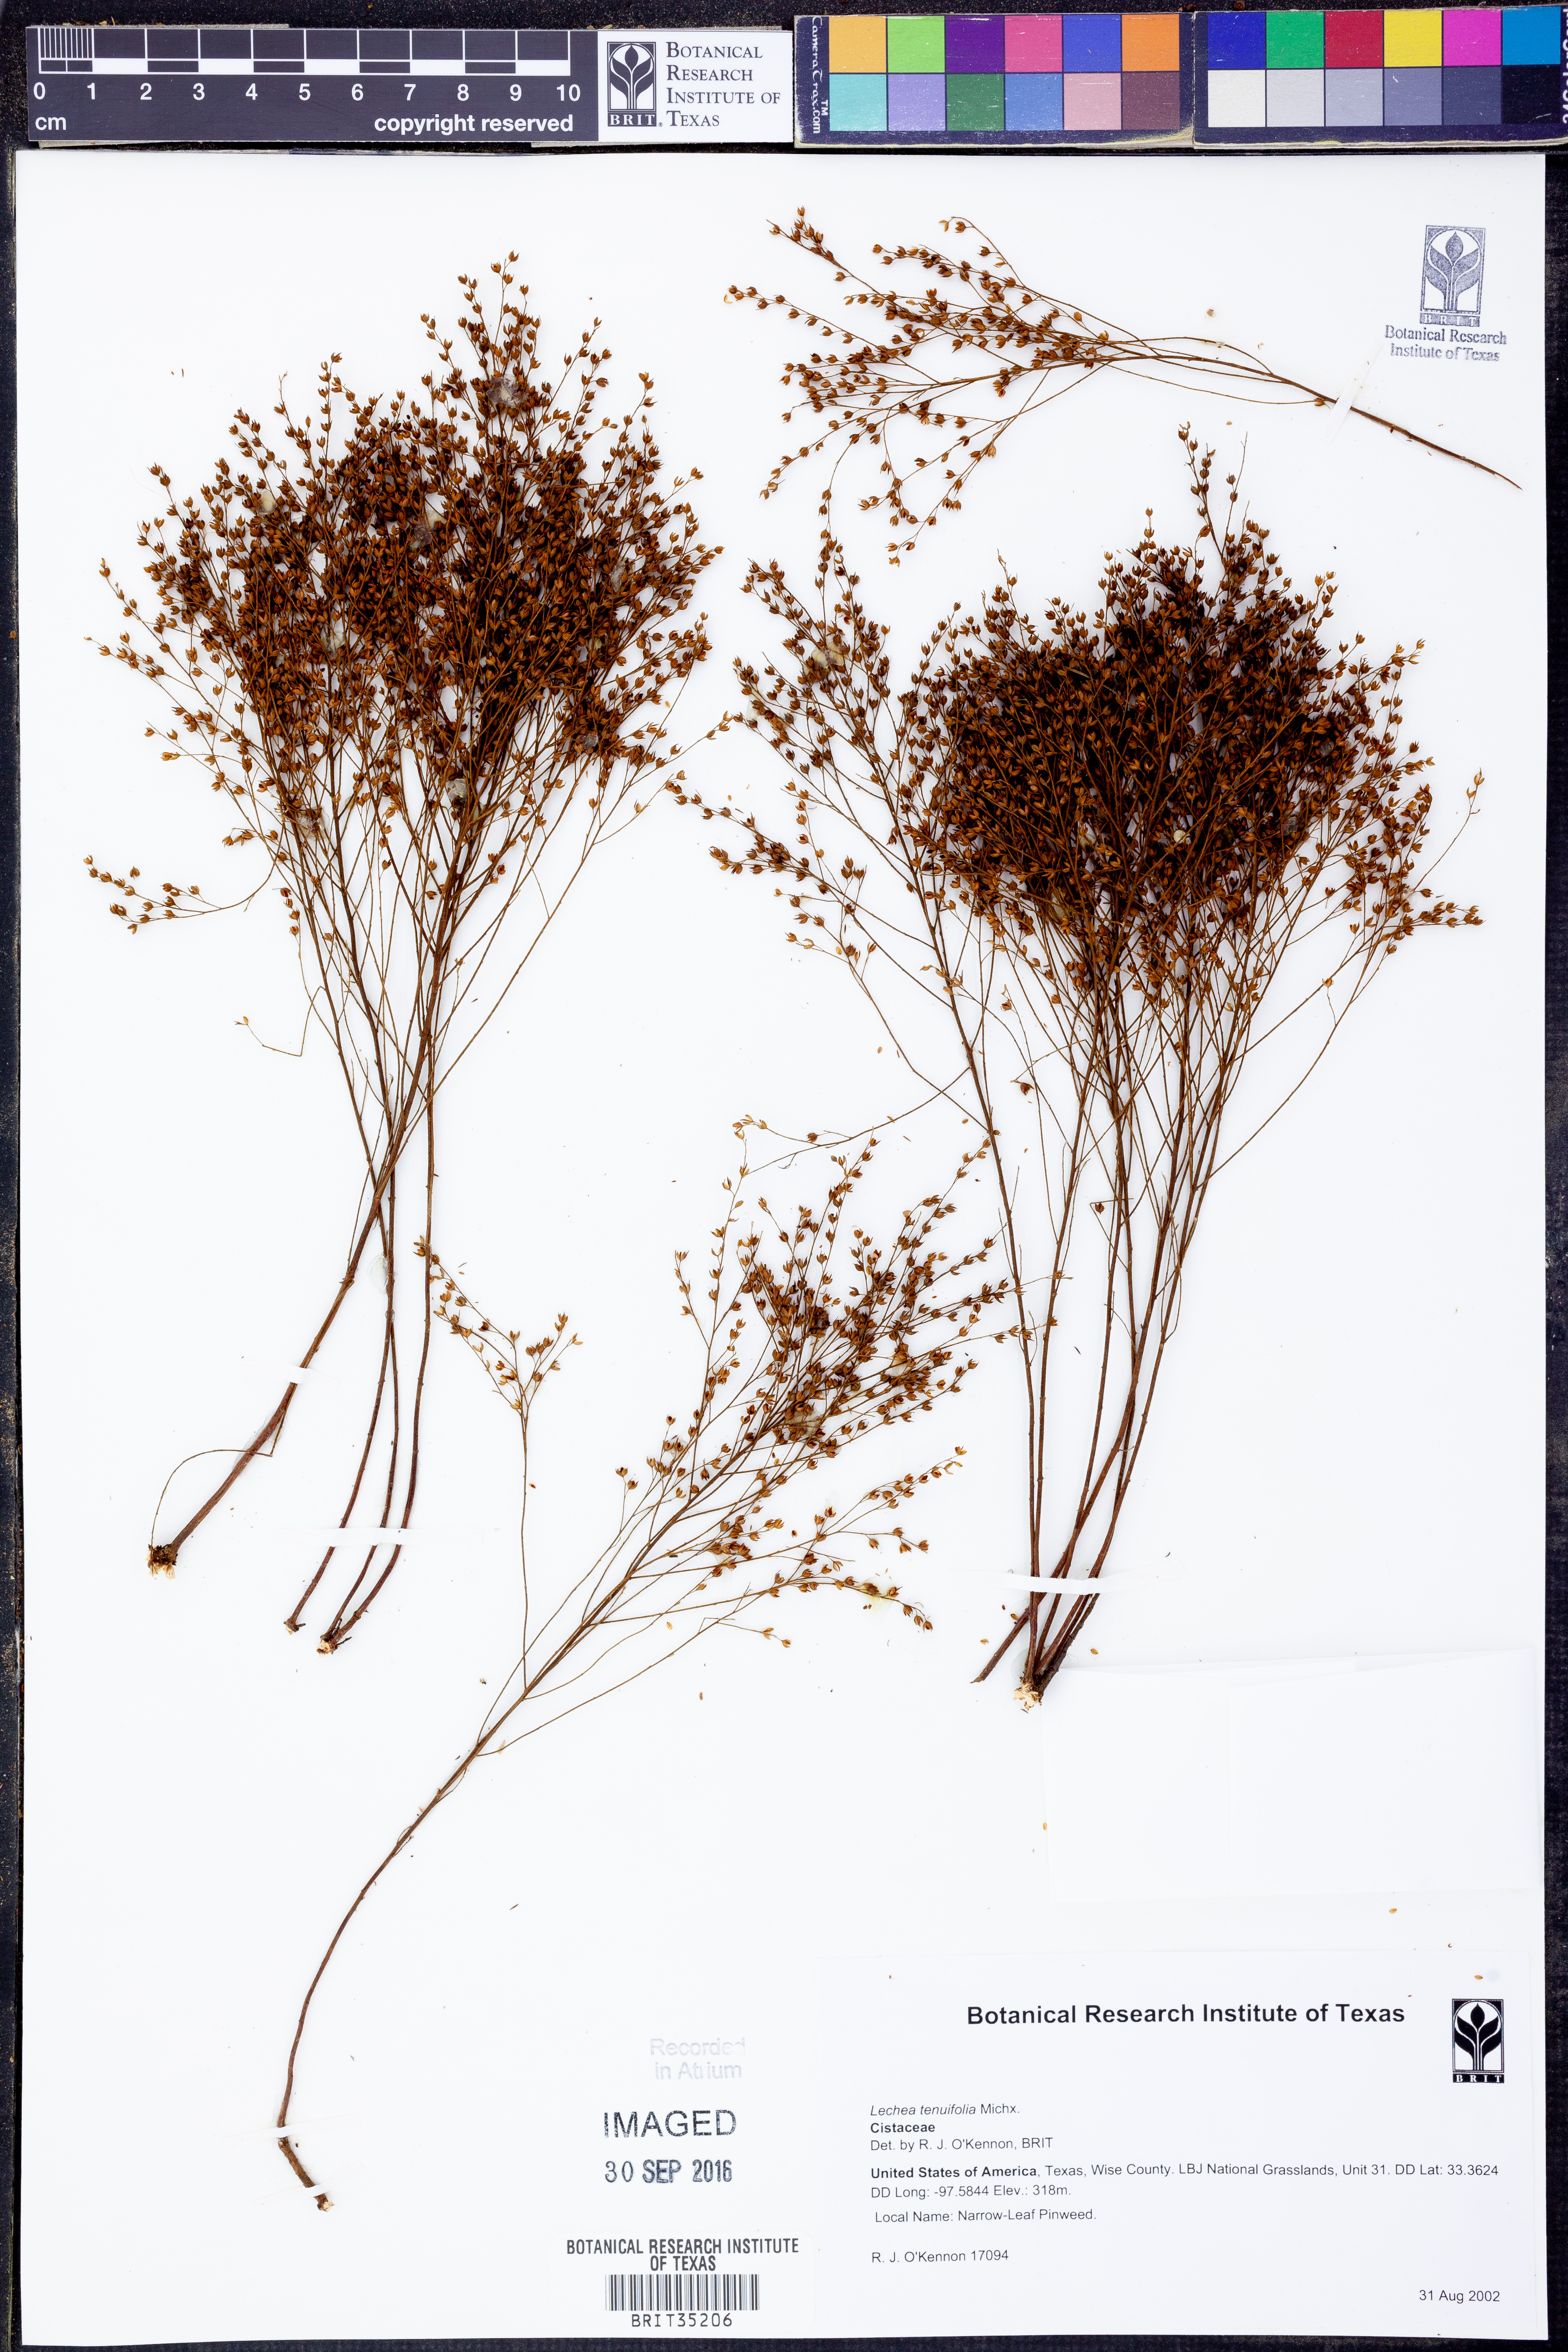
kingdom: Plantae
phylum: Tracheophyta
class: Magnoliopsida
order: Malvales
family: Cistaceae
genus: Lechea
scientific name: Lechea tenuifolia
